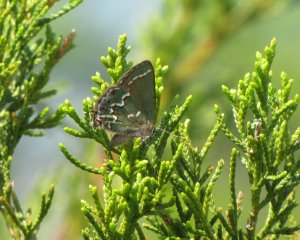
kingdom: Animalia
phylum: Arthropoda
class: Insecta
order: Lepidoptera
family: Lycaenidae
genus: Mitoura
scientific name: Mitoura gryneus
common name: Juniper Hairstreak
